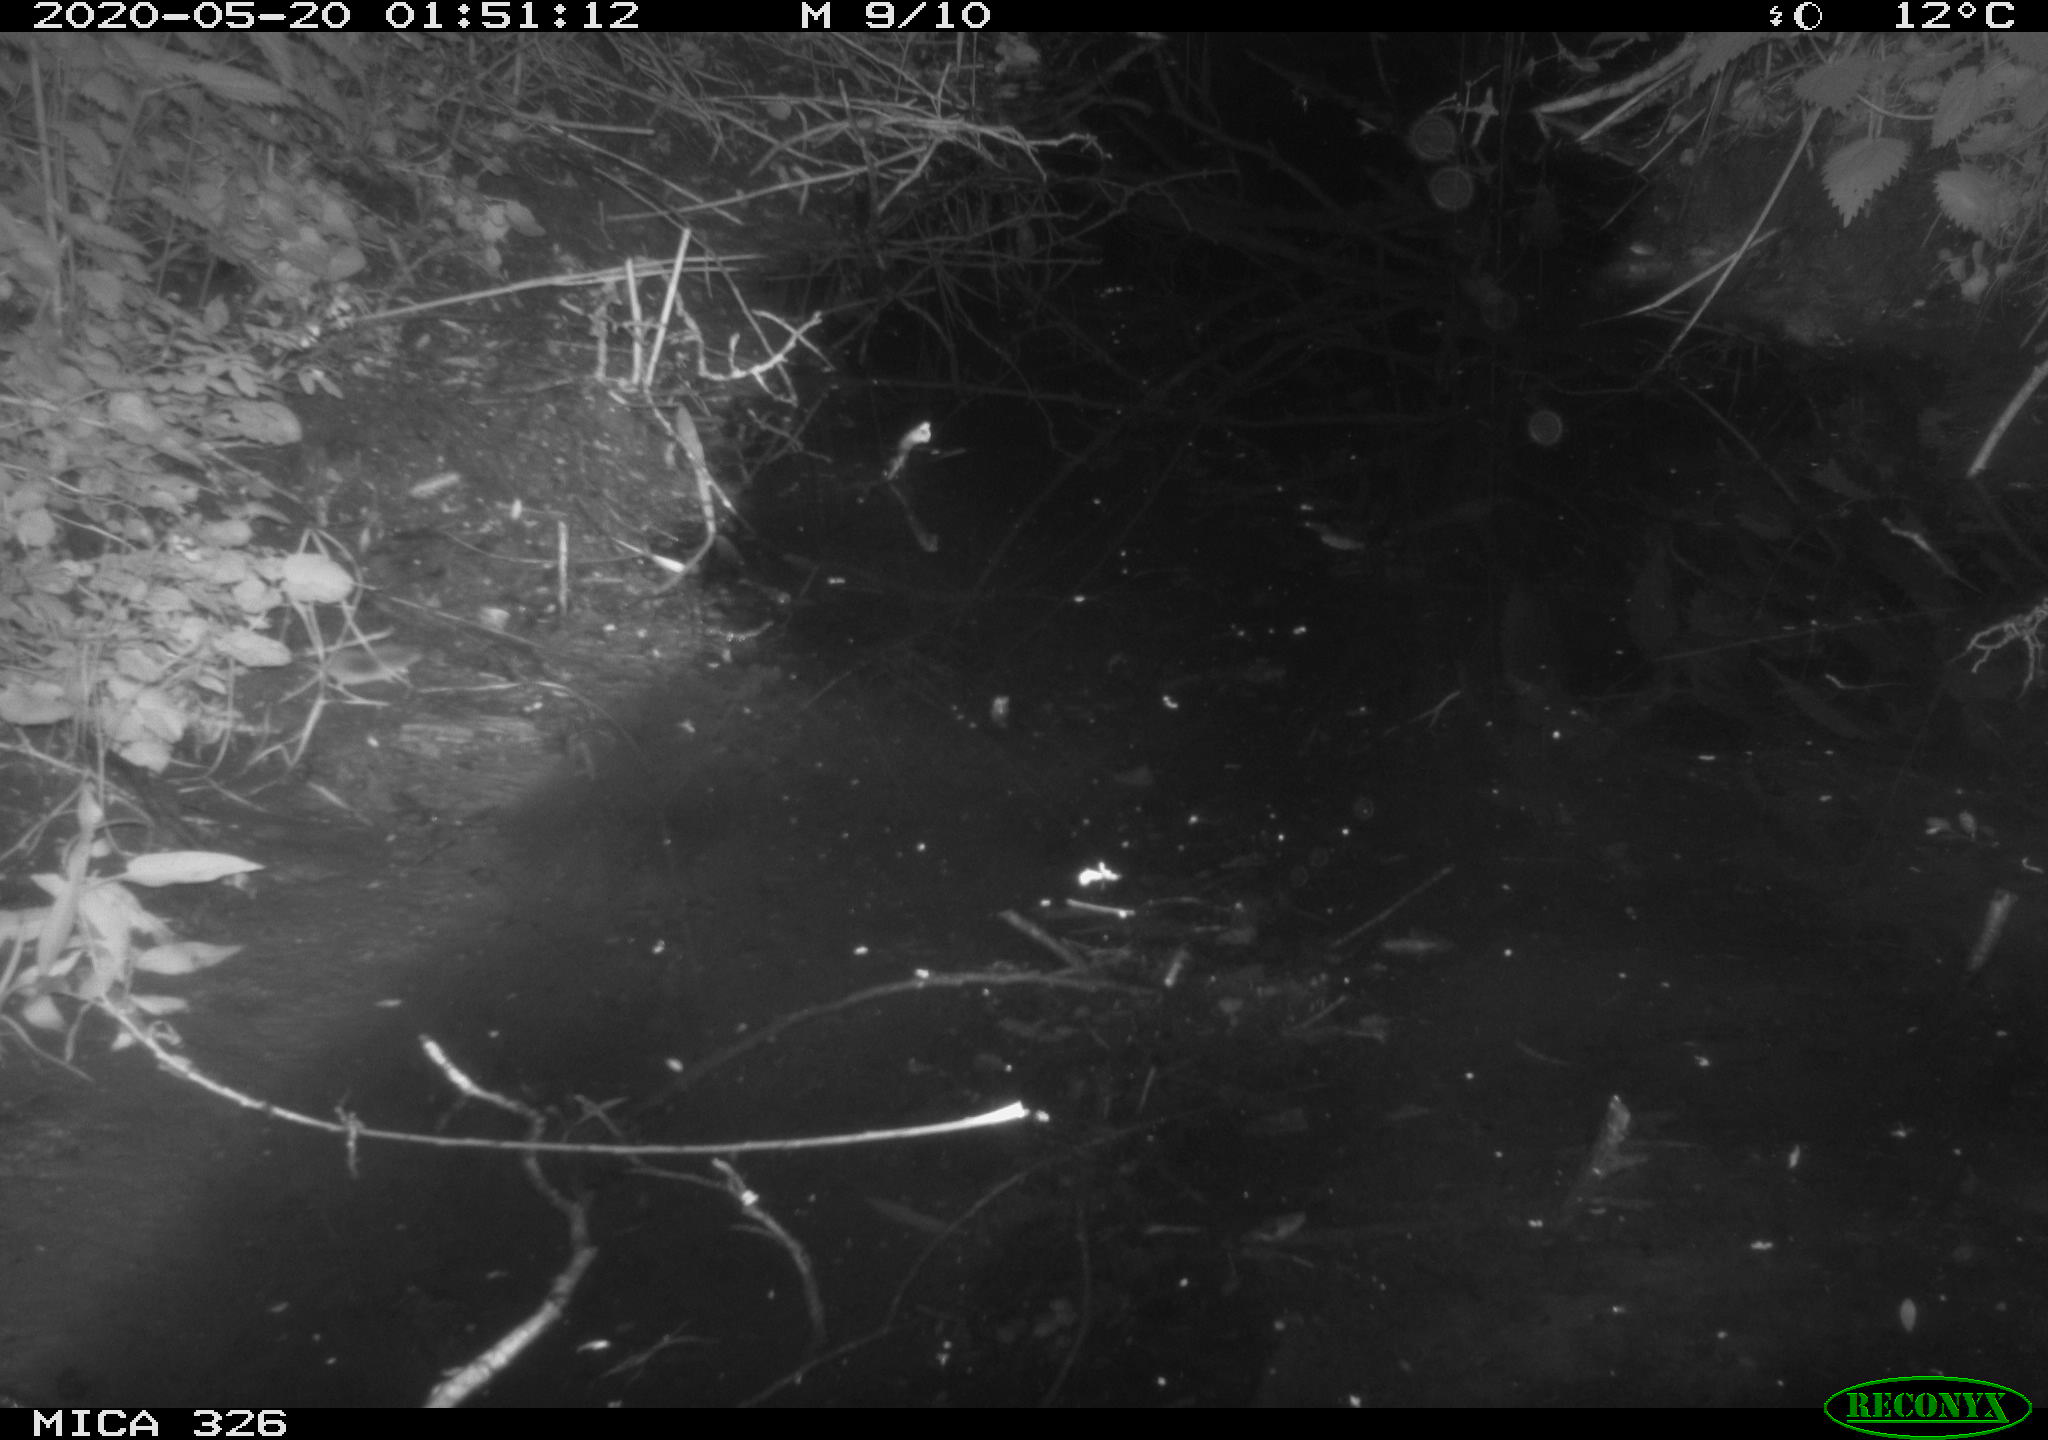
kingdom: Animalia
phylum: Chordata
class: Mammalia
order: Rodentia
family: Muridae
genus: Rattus
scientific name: Rattus norvegicus
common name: Brown rat
